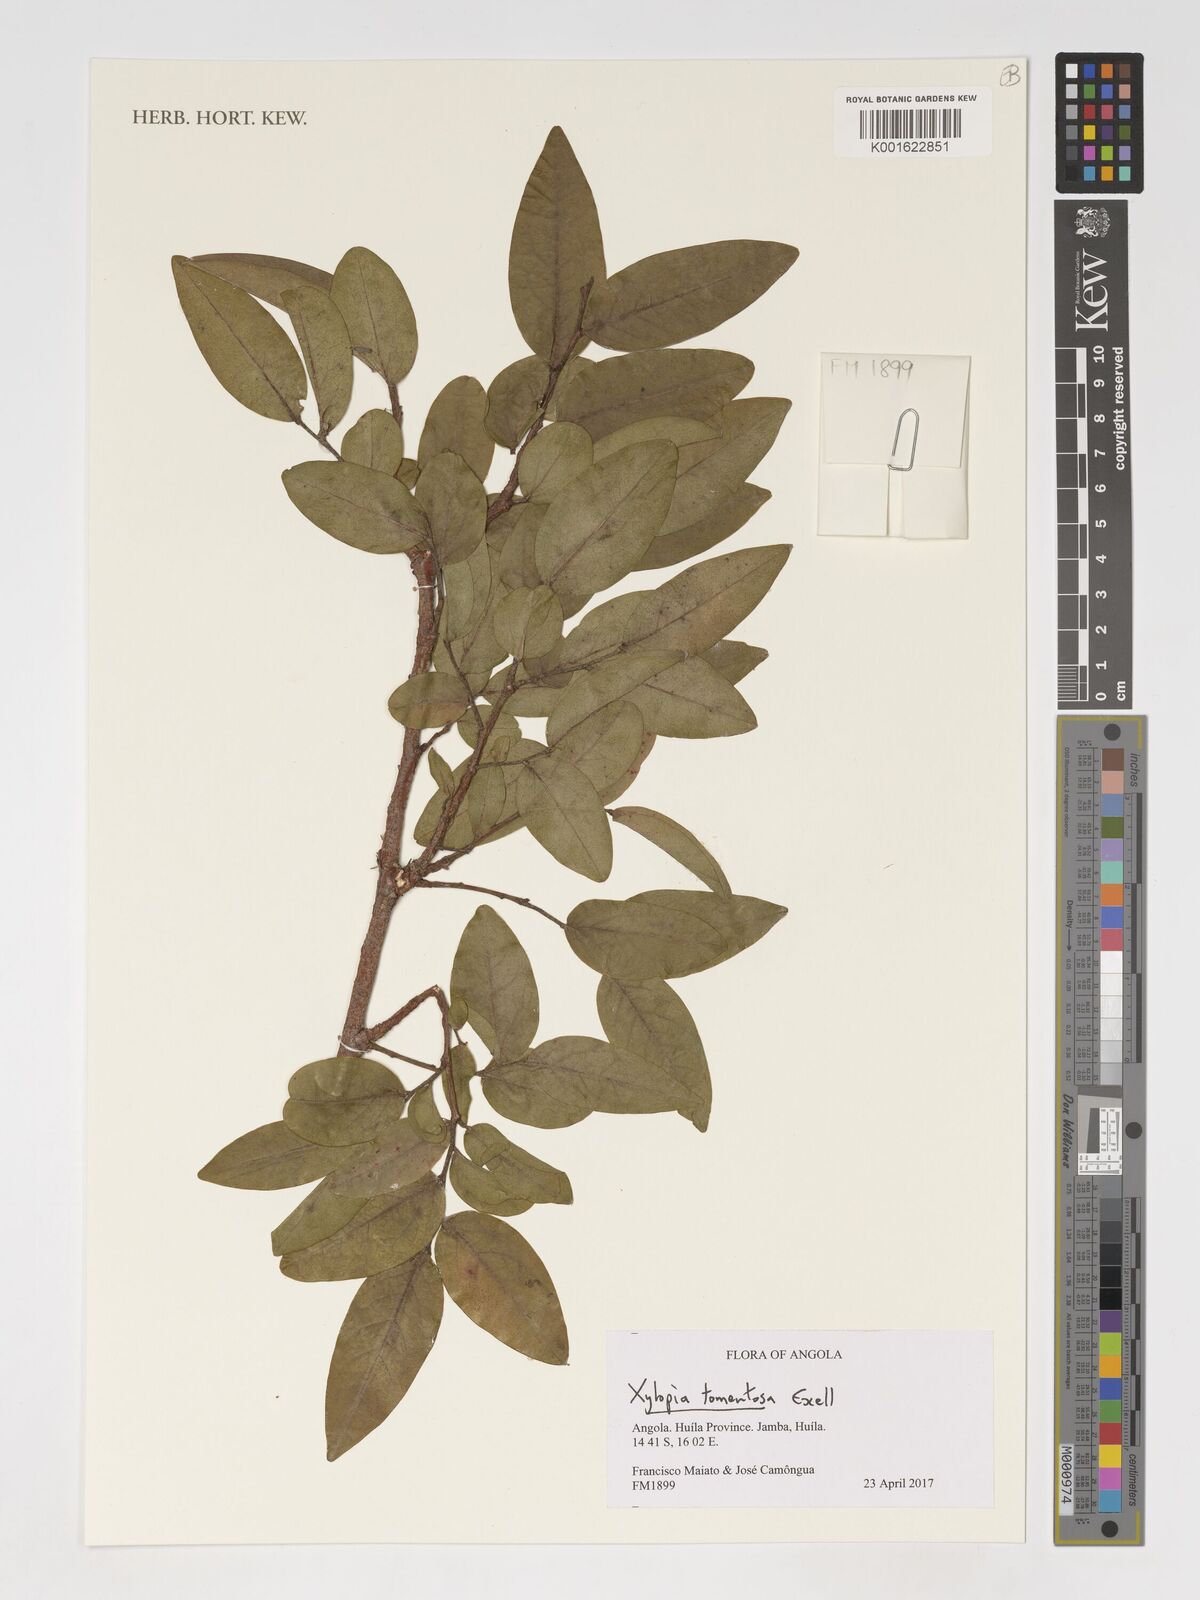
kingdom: Plantae
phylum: Tracheophyta
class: Magnoliopsida
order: Magnoliales
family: Annonaceae
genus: Xylopia
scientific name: Xylopia tomentosa
